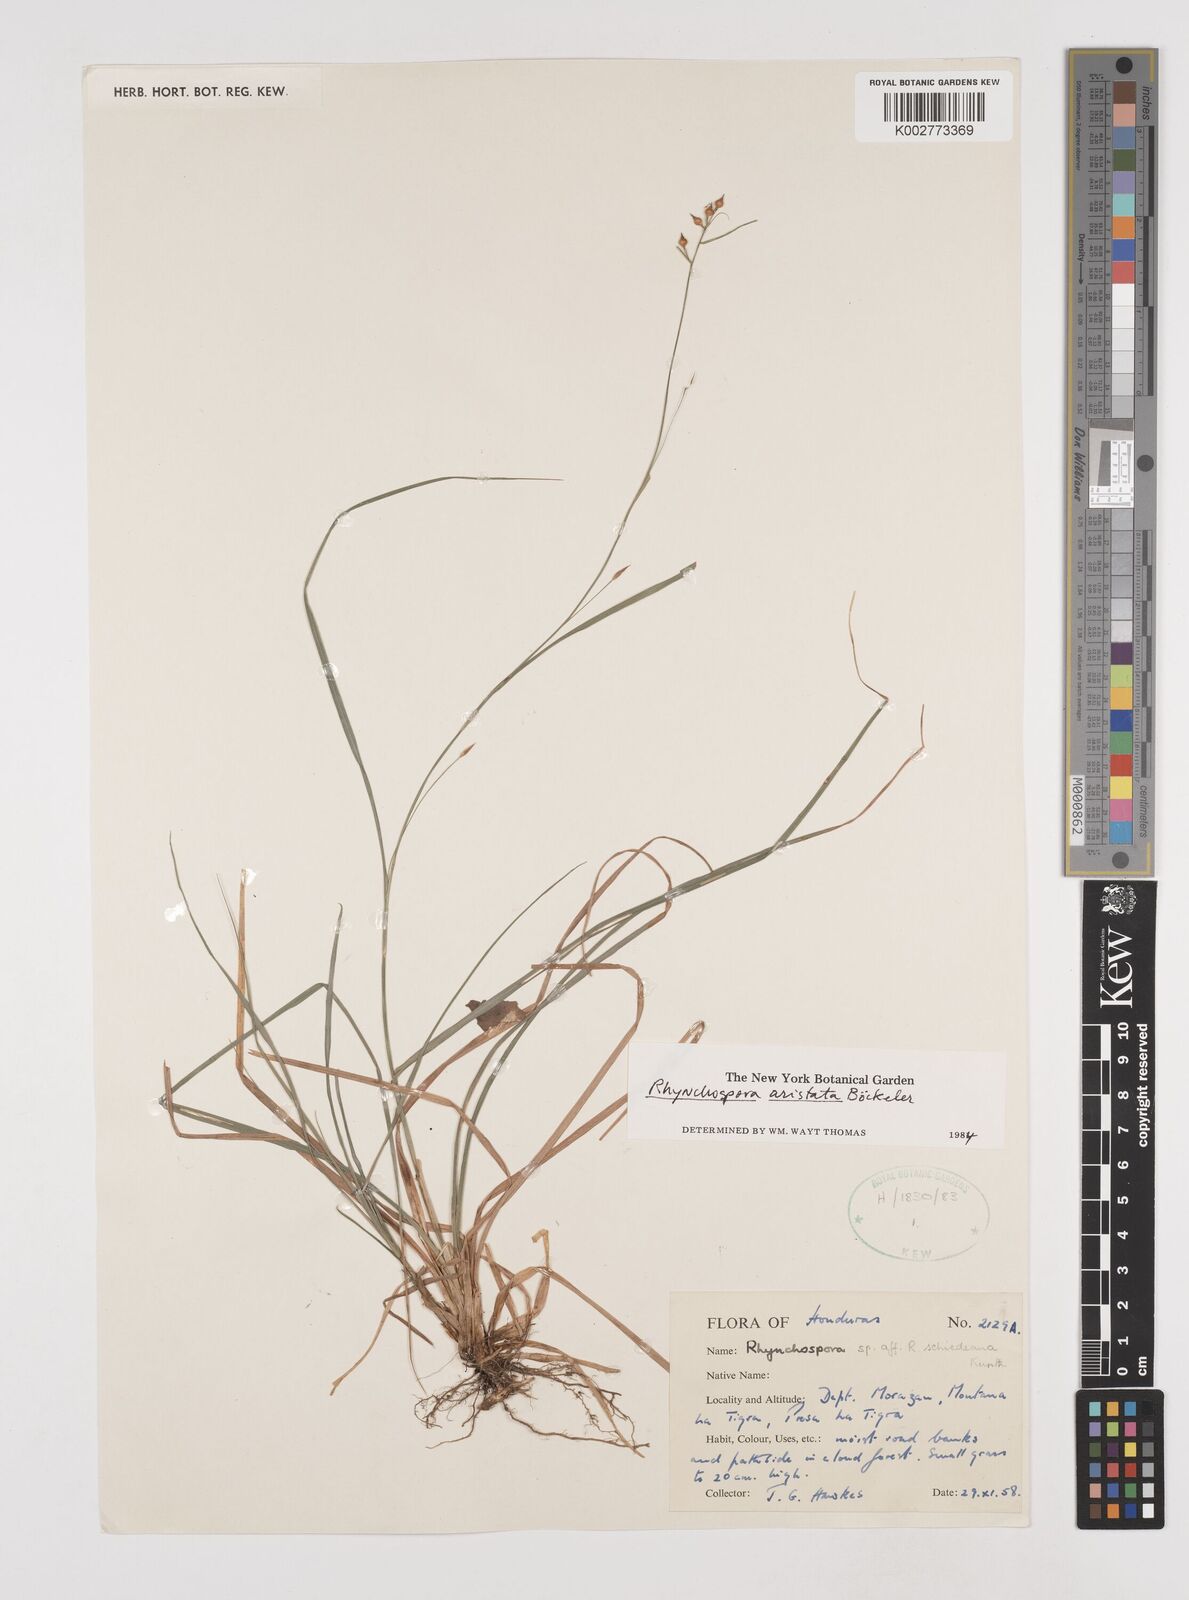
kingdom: Plantae
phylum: Tracheophyta
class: Liliopsida
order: Poales
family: Cyperaceae
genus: Rhynchospora
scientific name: Rhynchospora aristata
